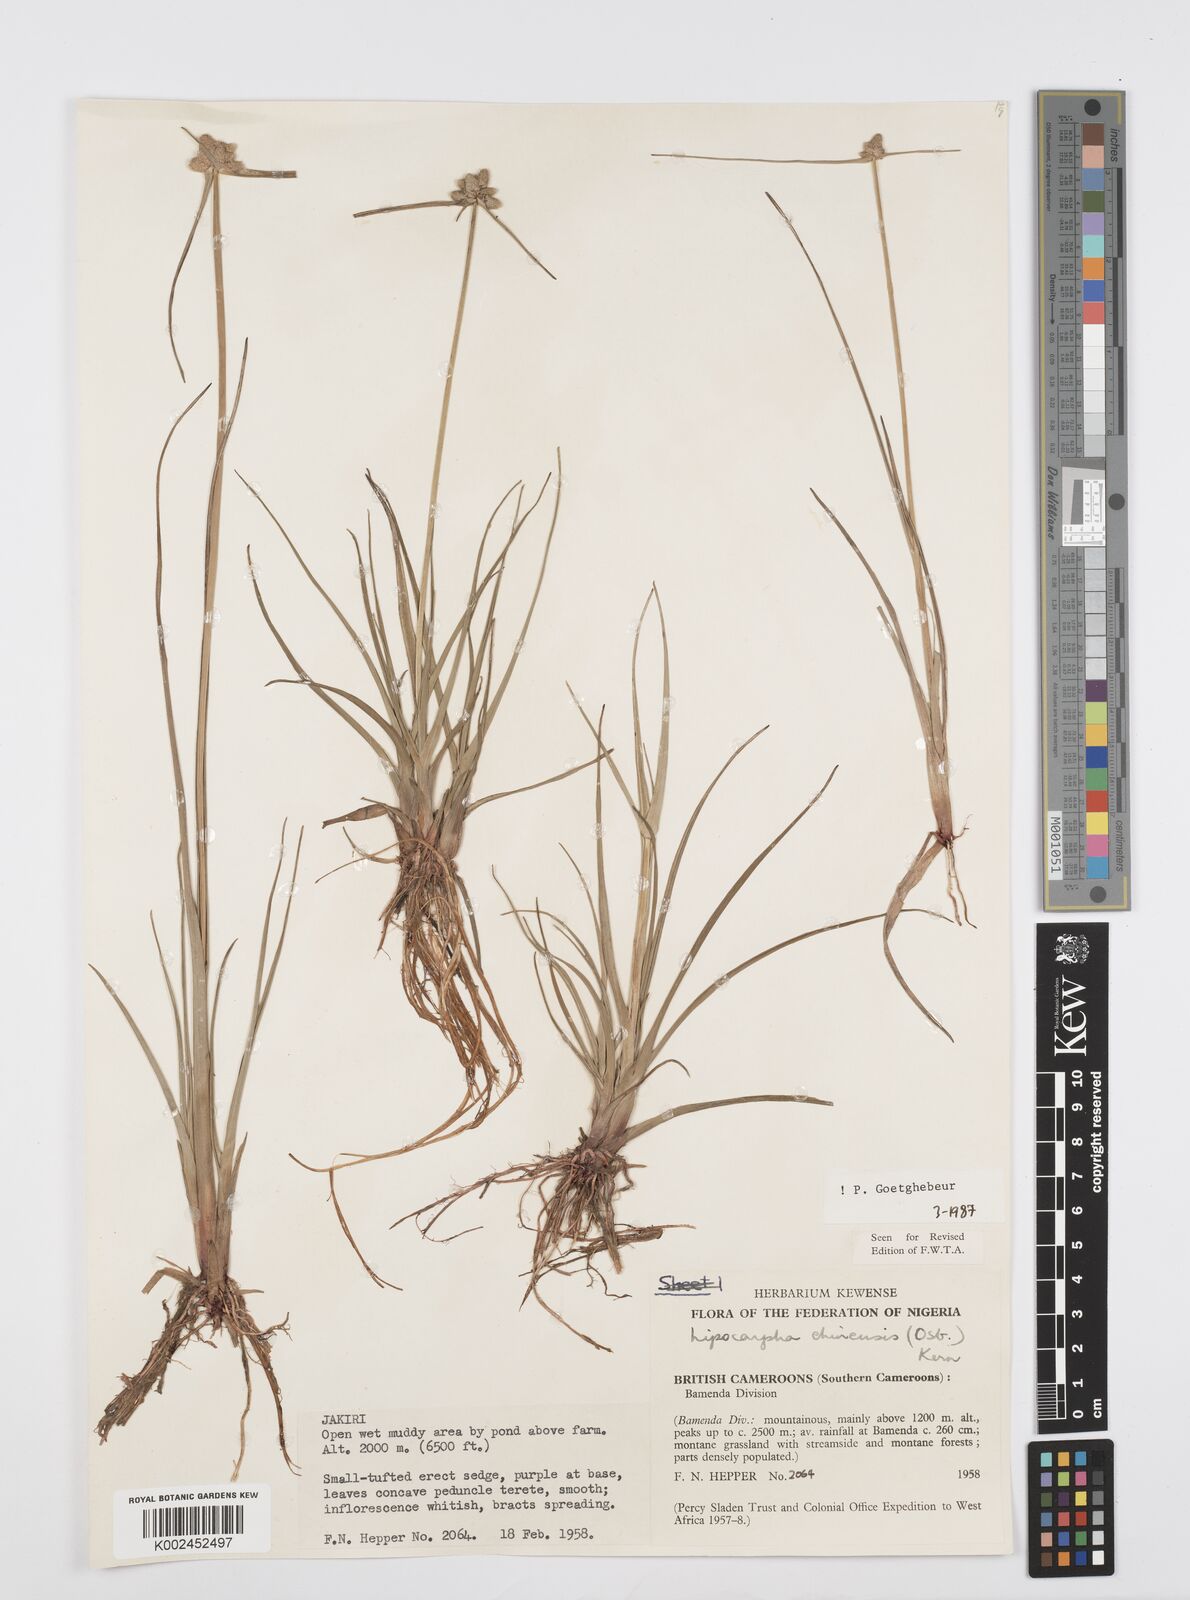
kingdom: Plantae
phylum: Tracheophyta
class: Liliopsida
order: Poales
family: Cyperaceae
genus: Cyperus
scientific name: Cyperus albescens
